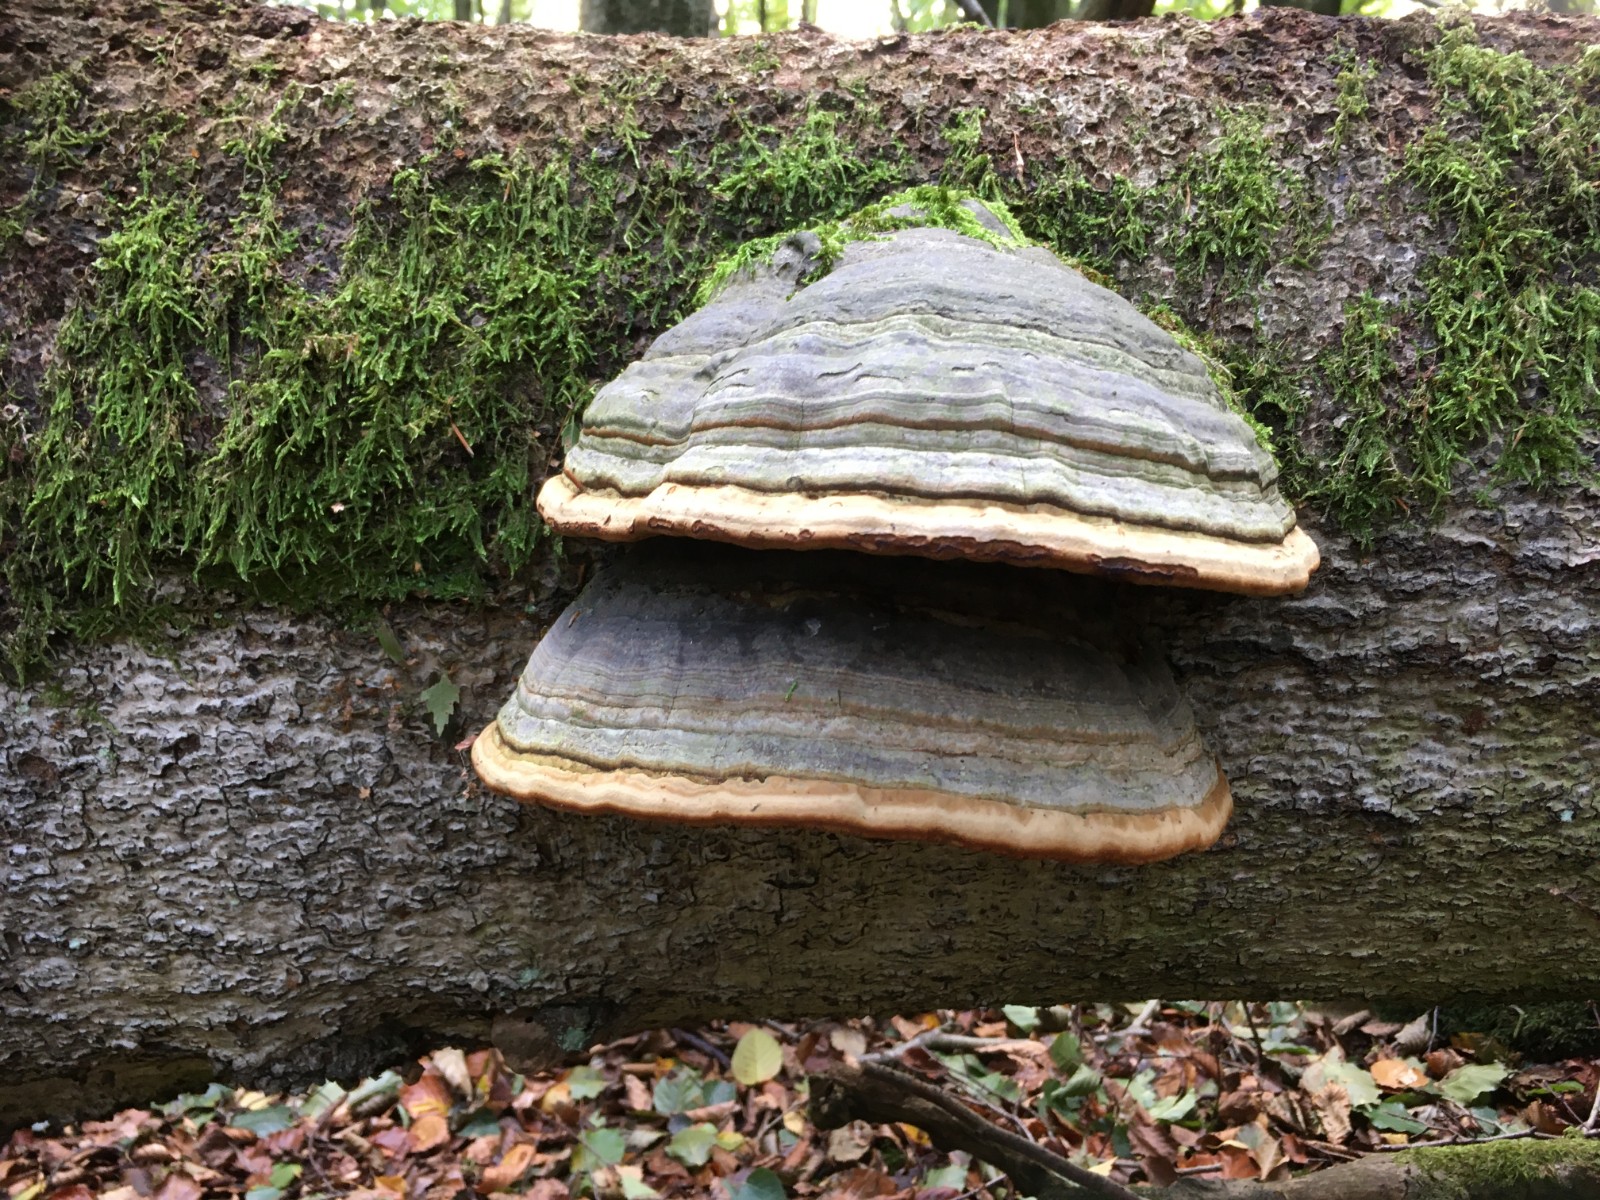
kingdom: Fungi
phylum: Basidiomycota
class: Agaricomycetes
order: Polyporales
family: Polyporaceae
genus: Fomes
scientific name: Fomes fomentarius
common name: tøndersvamp
